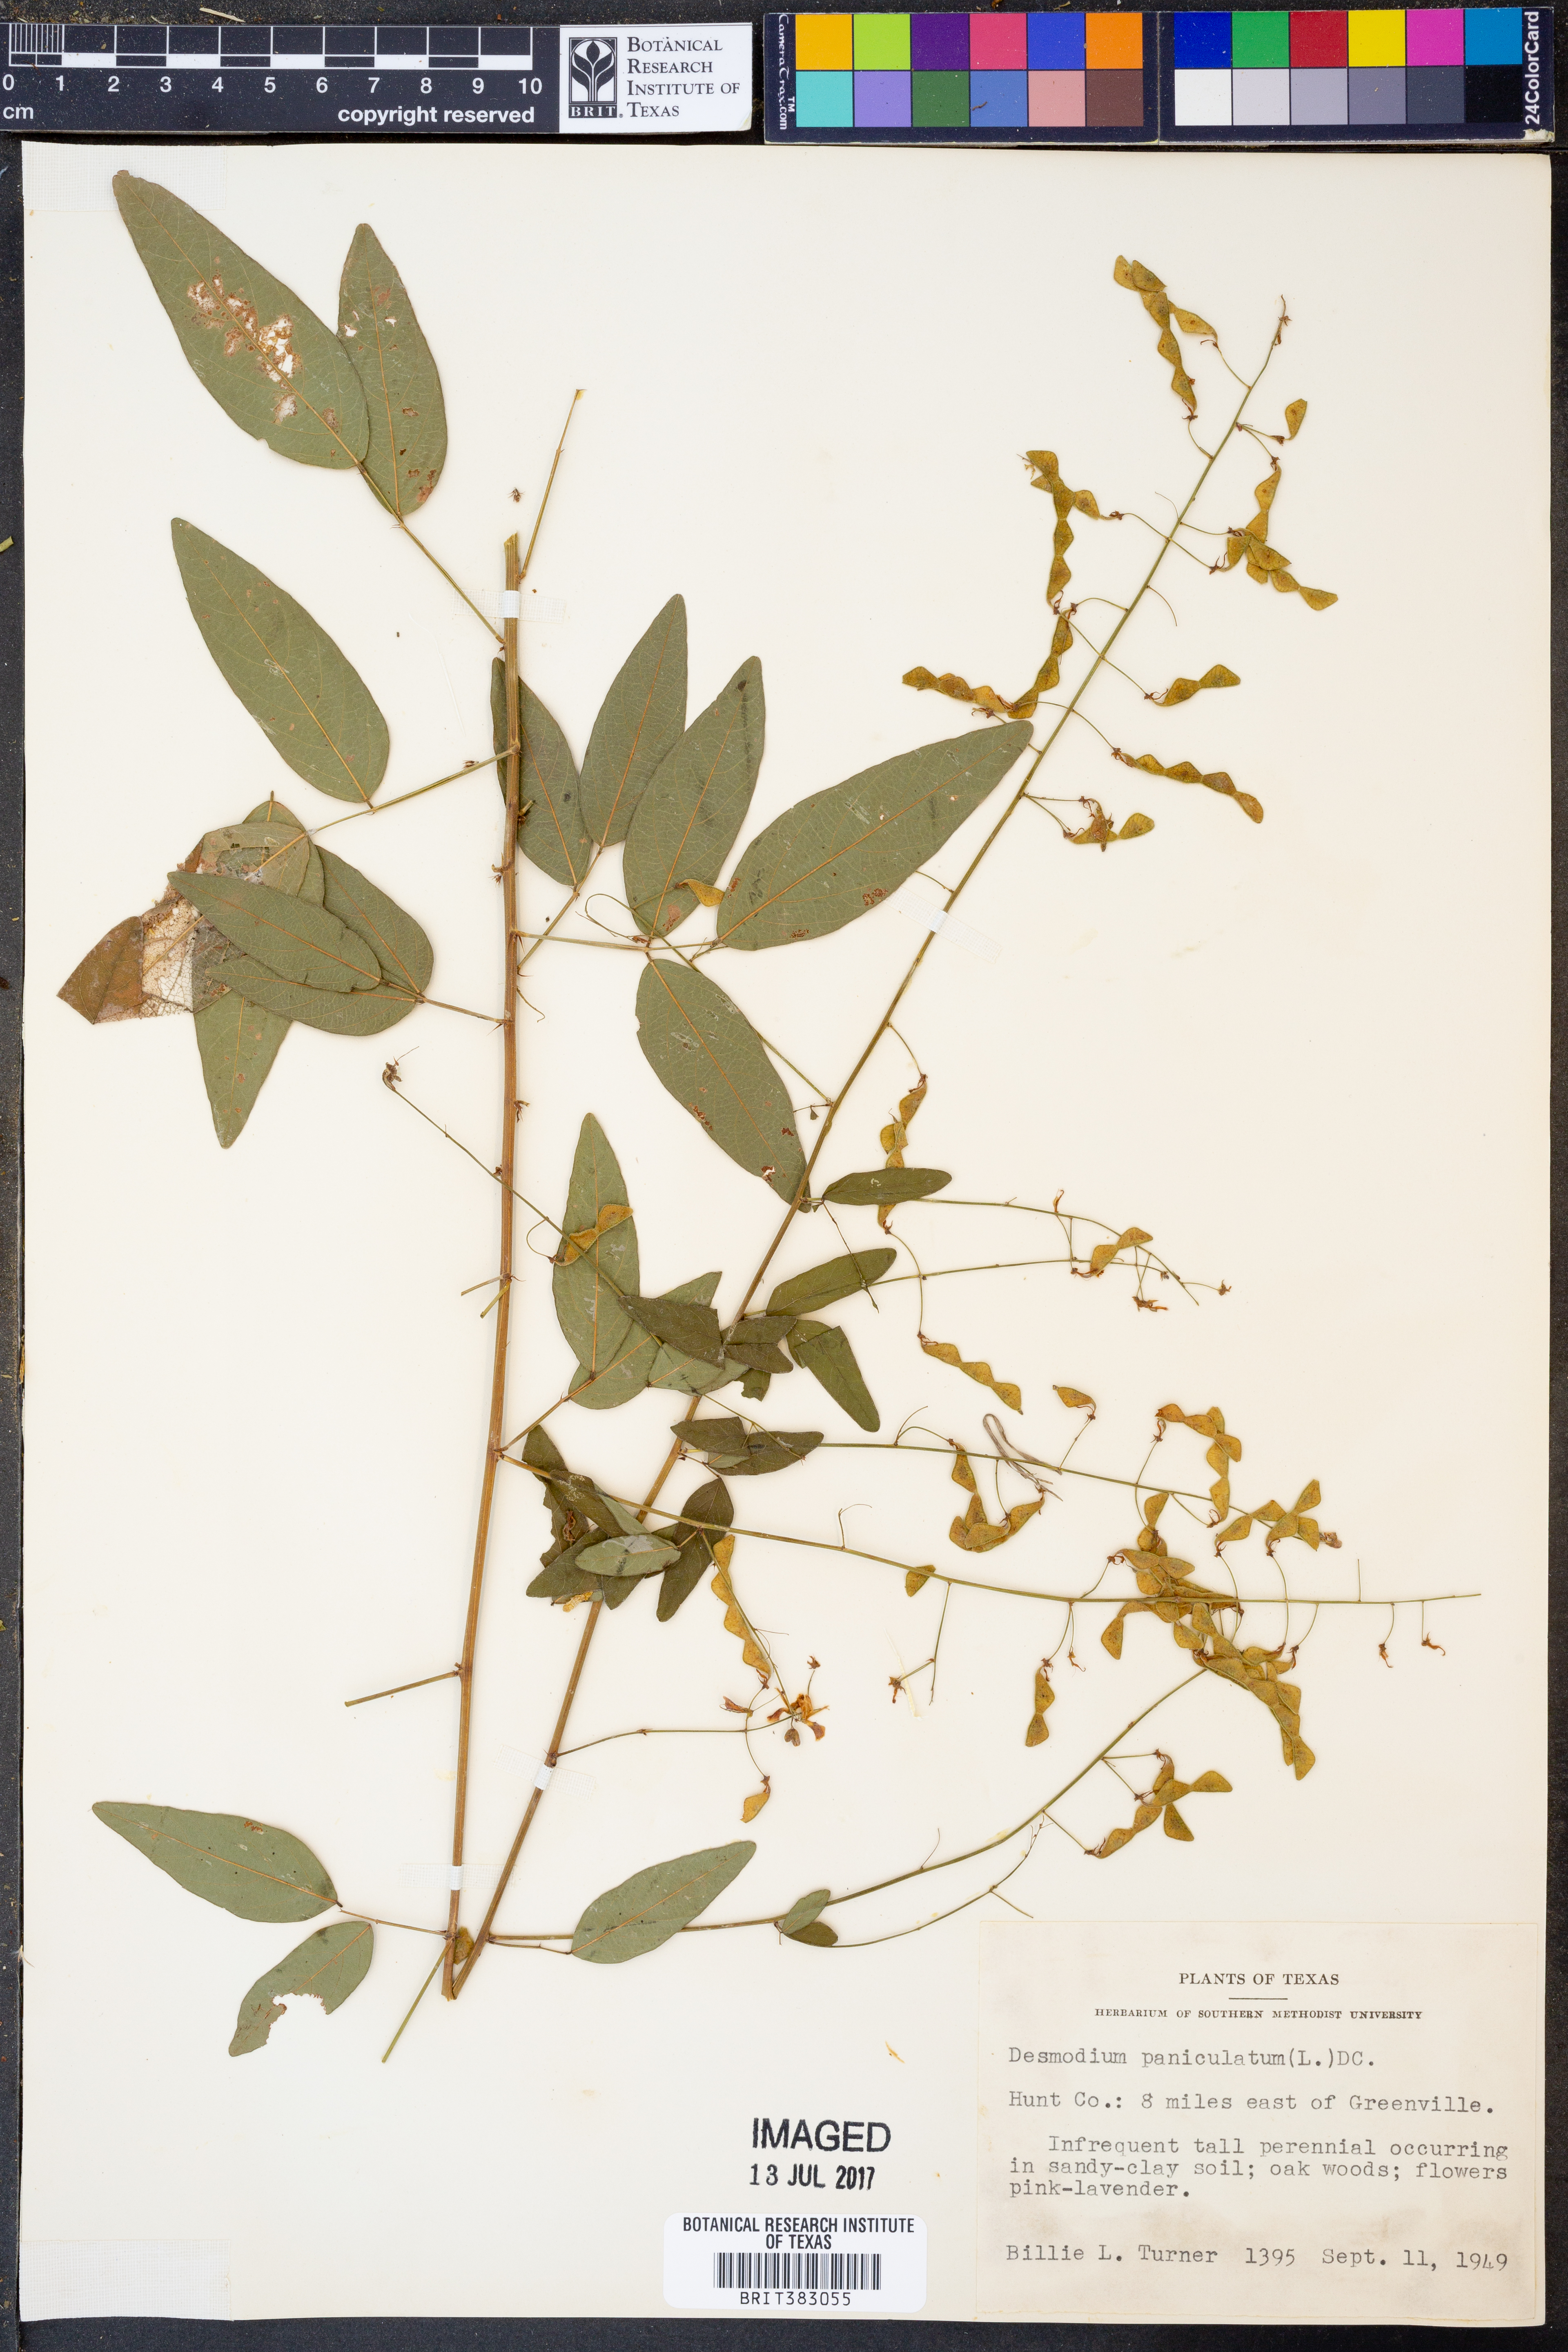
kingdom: Plantae
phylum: Tracheophyta
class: Magnoliopsida
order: Fabales
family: Fabaceae
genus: Desmodium
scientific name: Desmodium paniculatum
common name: Panicled tick-clover
